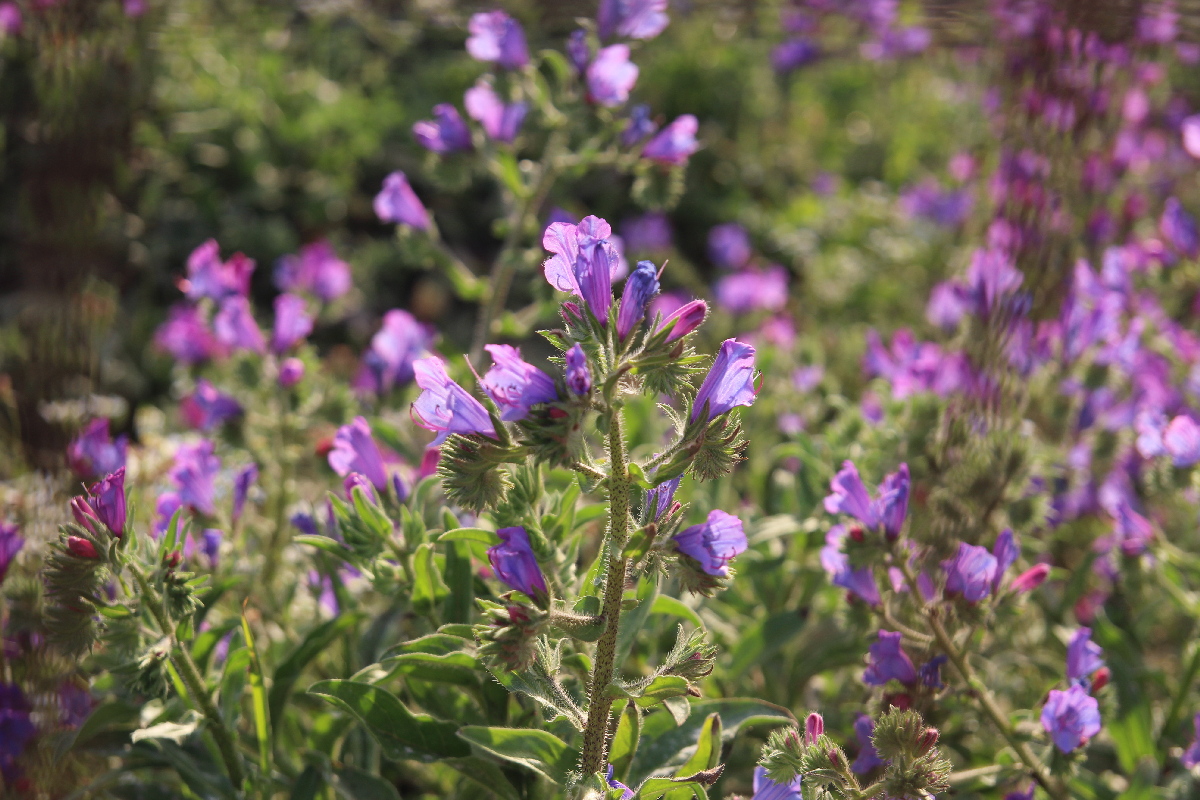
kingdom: Plantae
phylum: Tracheophyta
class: Magnoliopsida
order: Boraginales
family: Boraginaceae
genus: Echium
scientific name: Echium plantagineum
